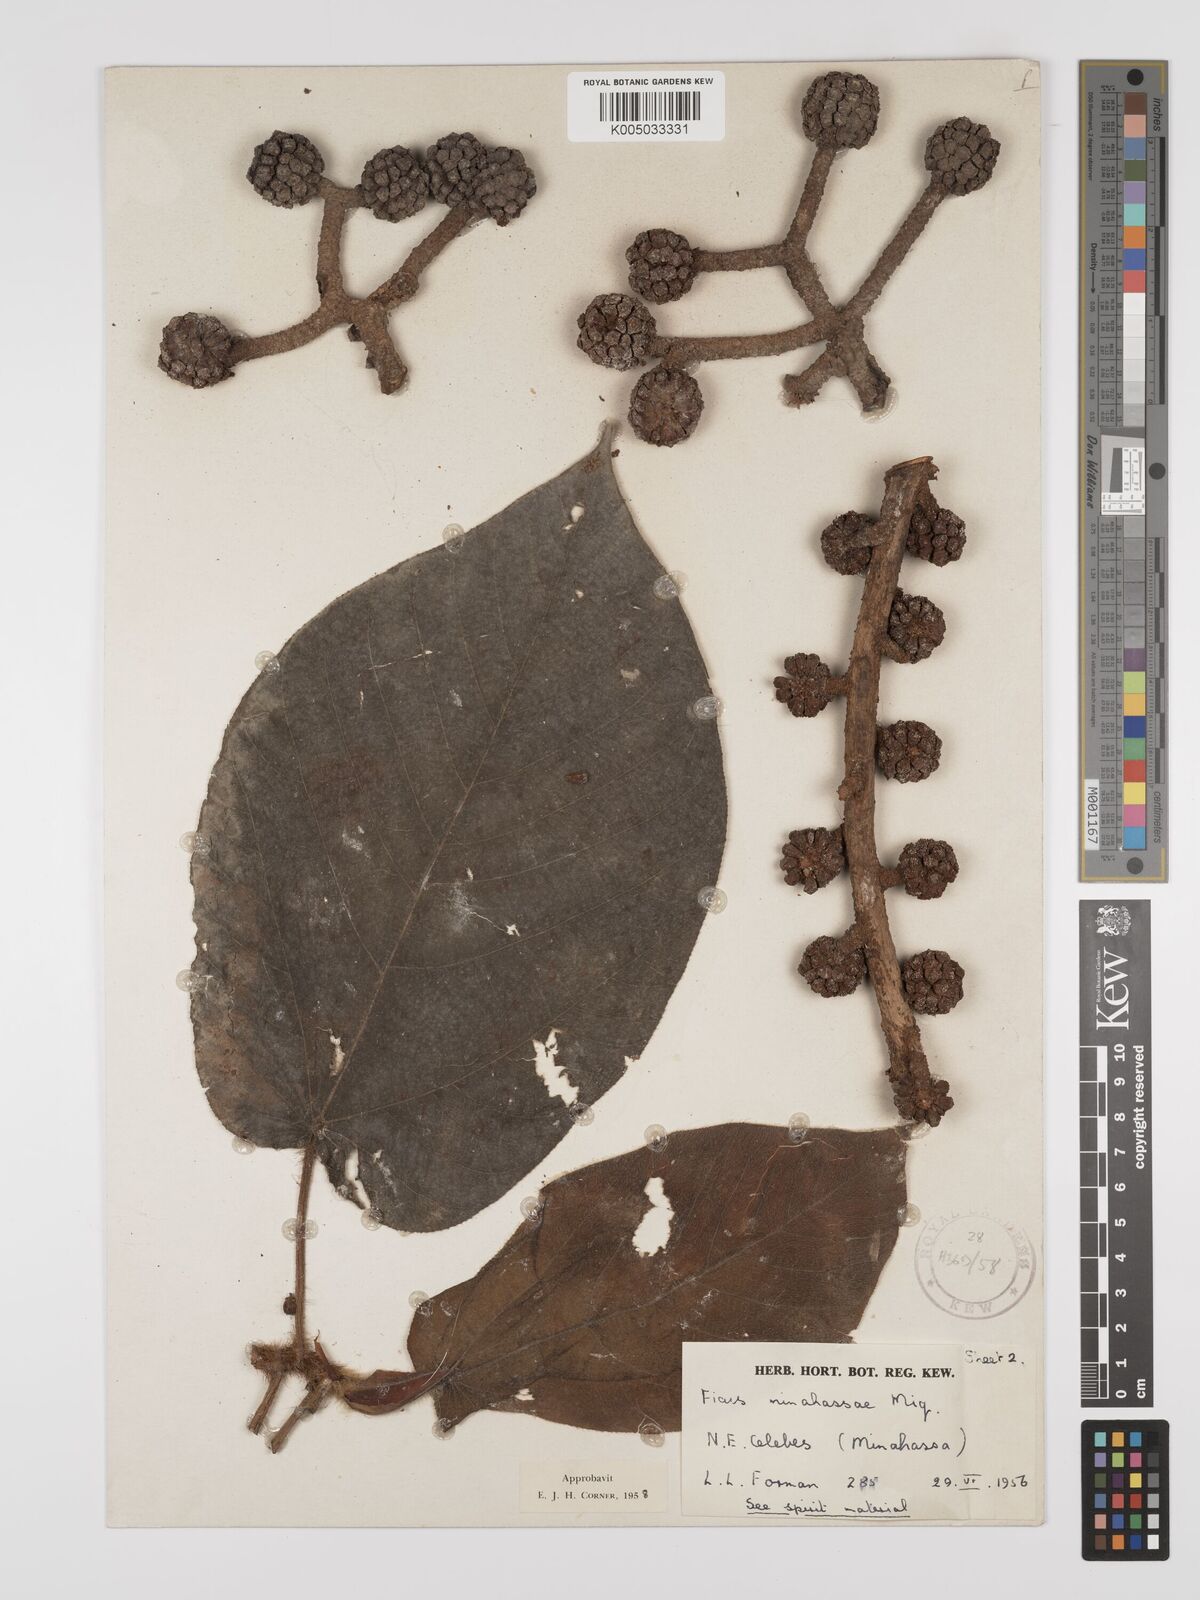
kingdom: Plantae
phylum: Tracheophyta
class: Magnoliopsida
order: Rosales
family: Moraceae
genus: Ficus
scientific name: Ficus minahassae
